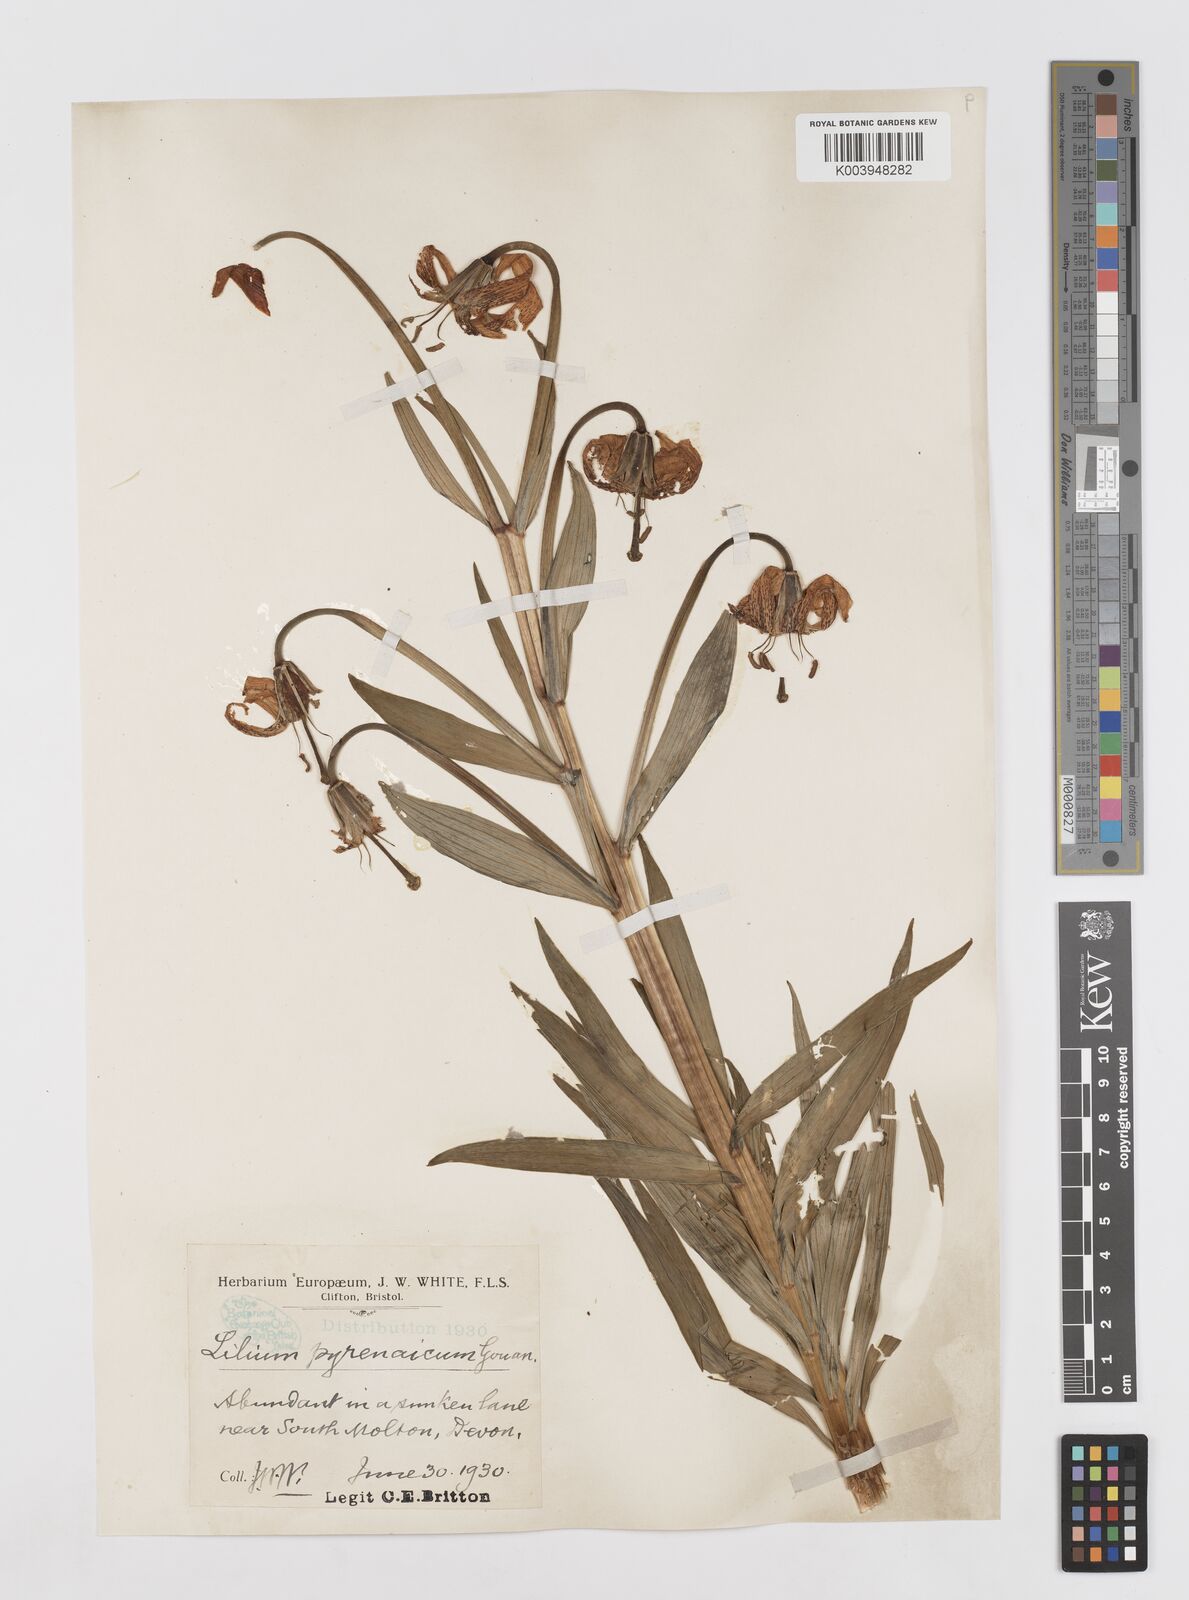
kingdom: Plantae
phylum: Tracheophyta
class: Liliopsida
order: Liliales
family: Liliaceae
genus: Lilium
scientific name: Lilium pyrenaicum
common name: Pyrenean lily
